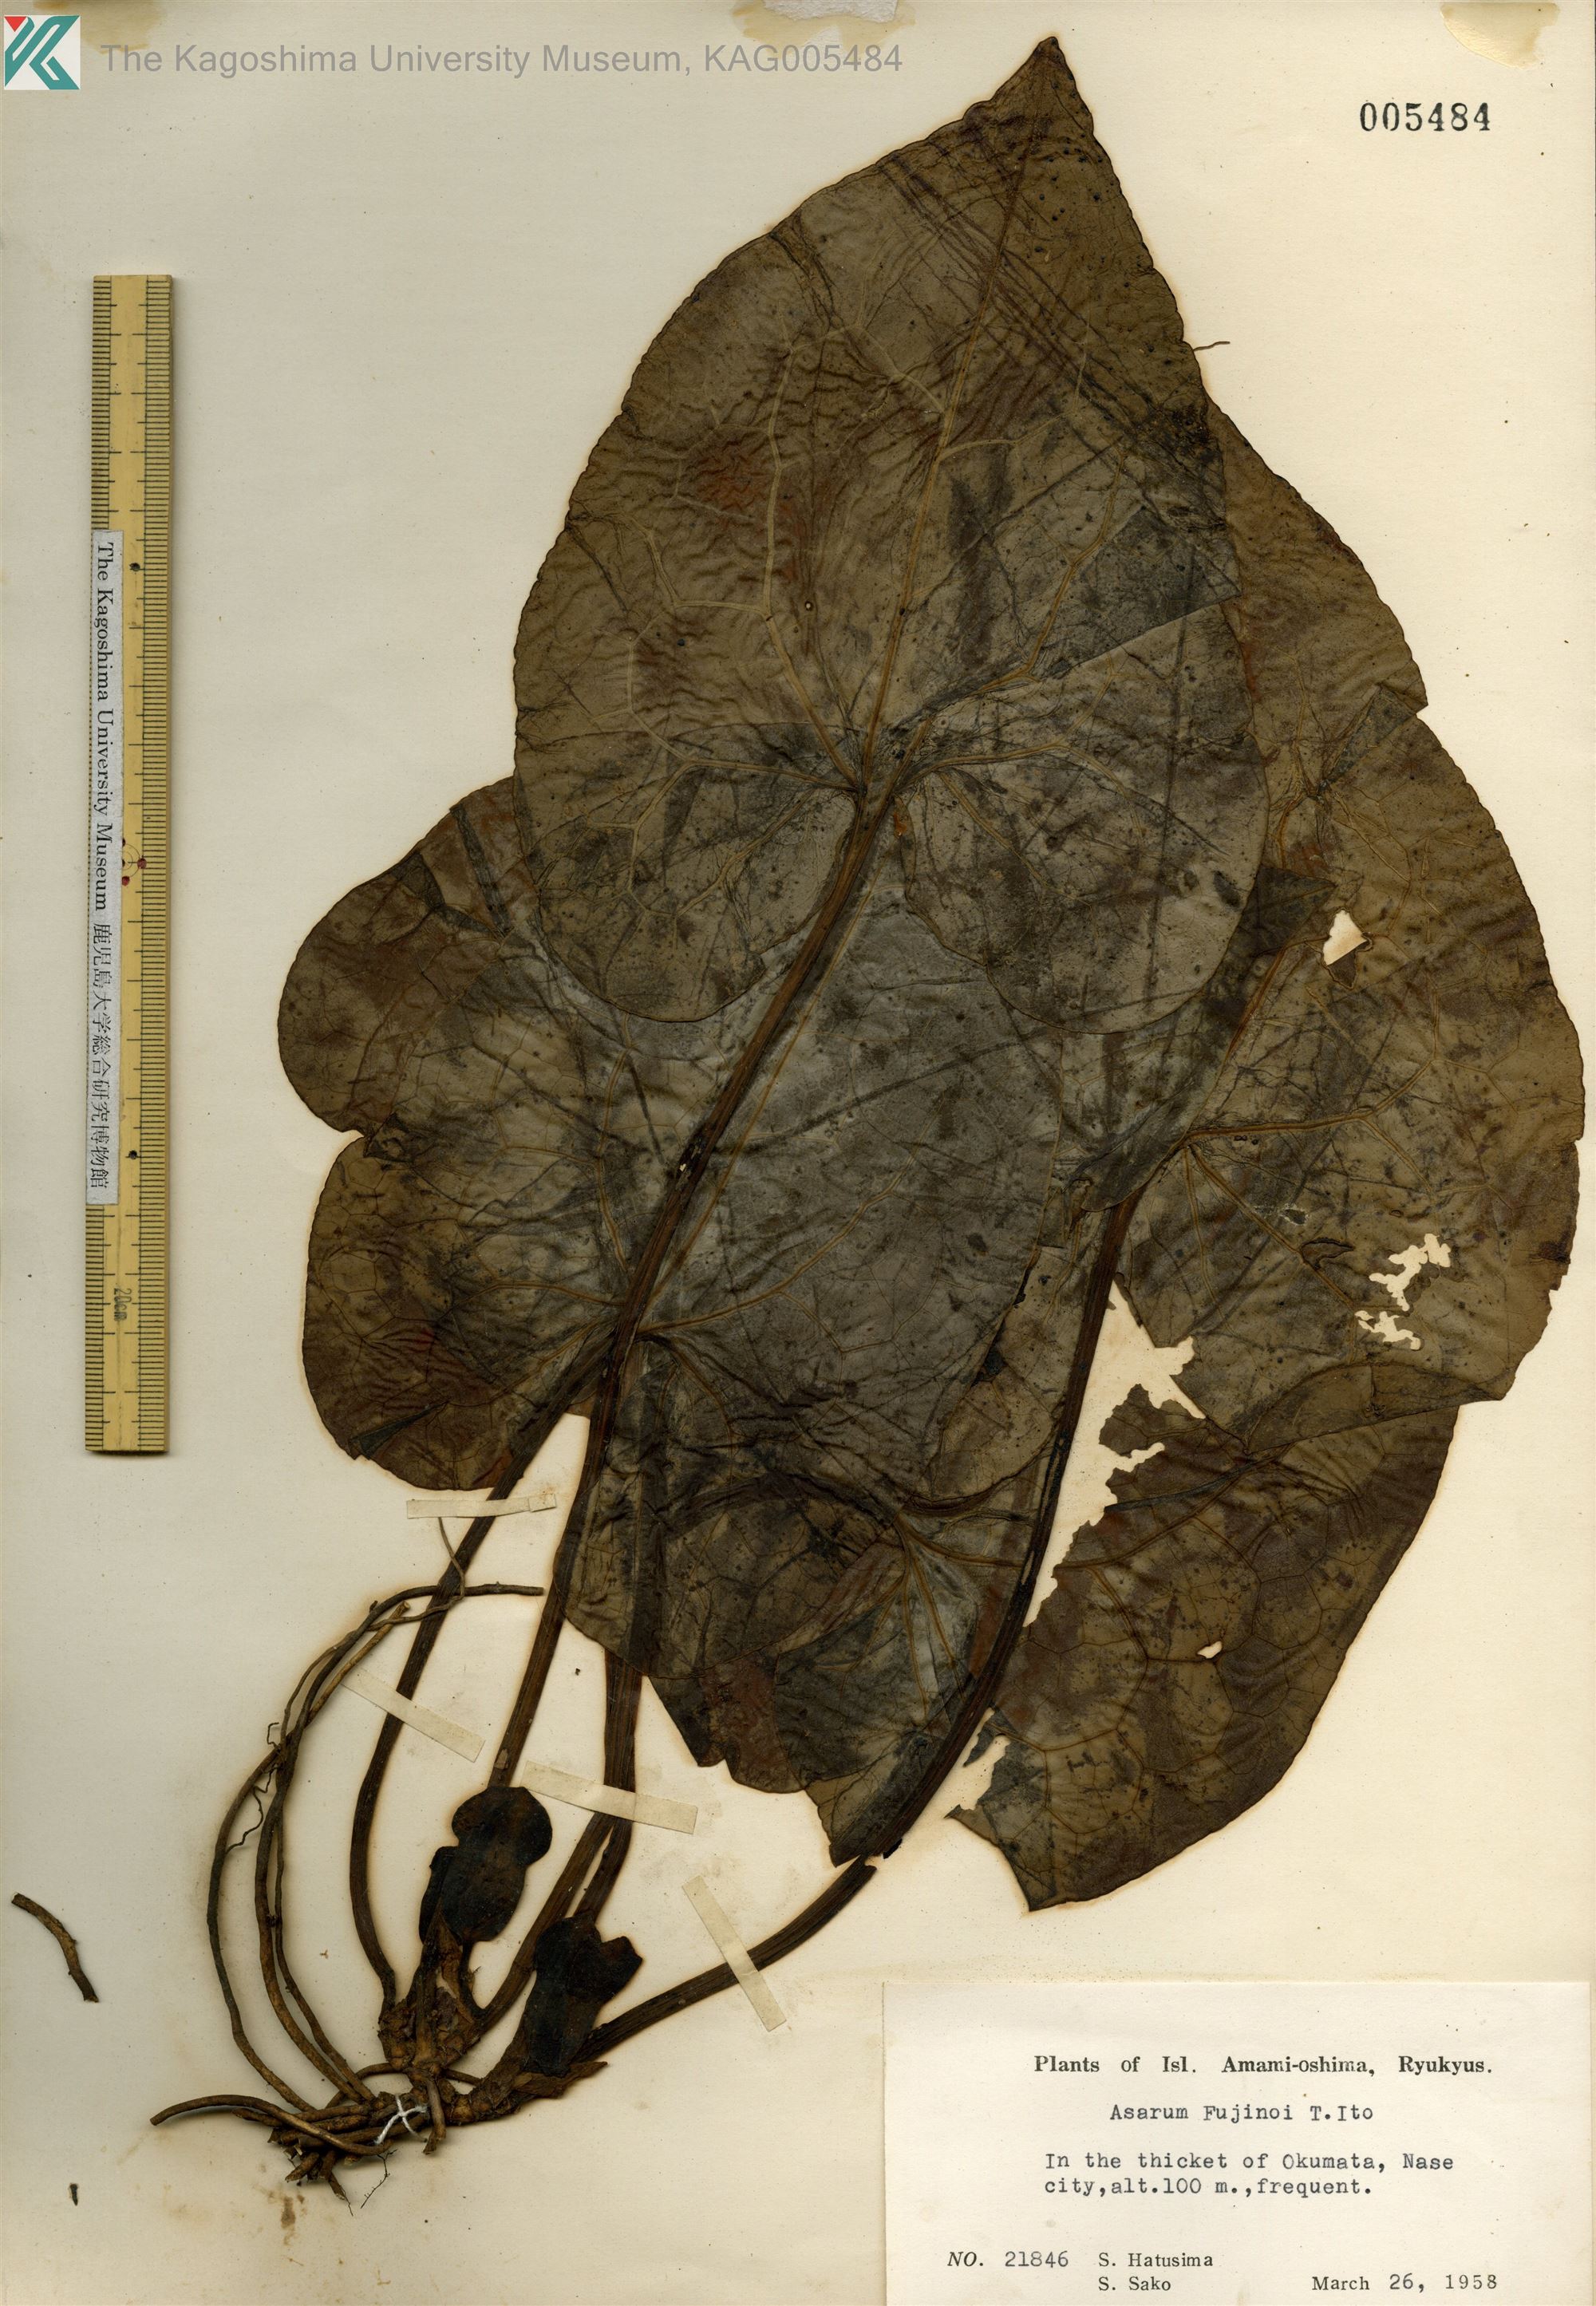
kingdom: Plantae
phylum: Tracheophyta
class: Magnoliopsida
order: Piperales
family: Aristolochiaceae
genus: Asarum
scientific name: Asarum
